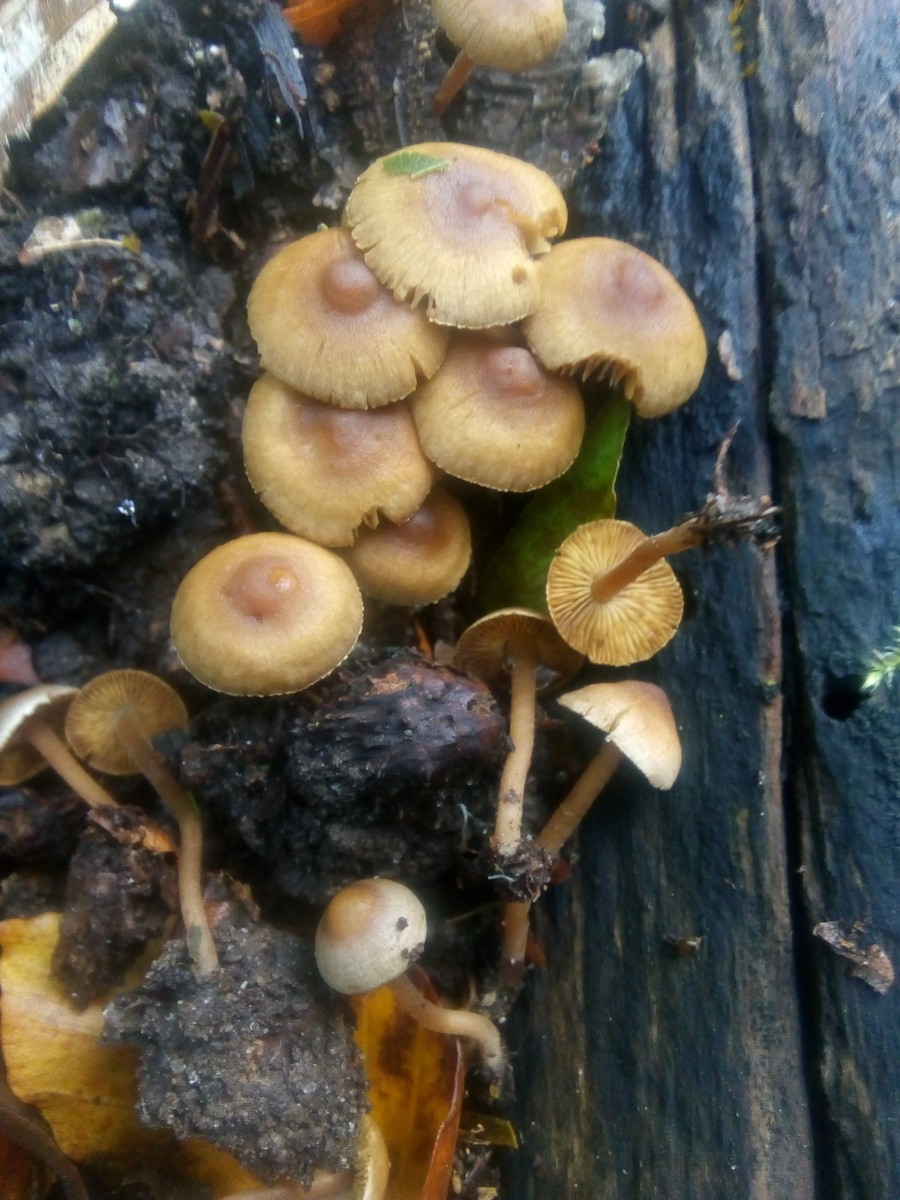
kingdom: Fungi
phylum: Basidiomycota
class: Agaricomycetes
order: Agaricales
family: Inocybaceae
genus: Inocybe
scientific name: Inocybe petiginosa
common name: liden trævlhat
